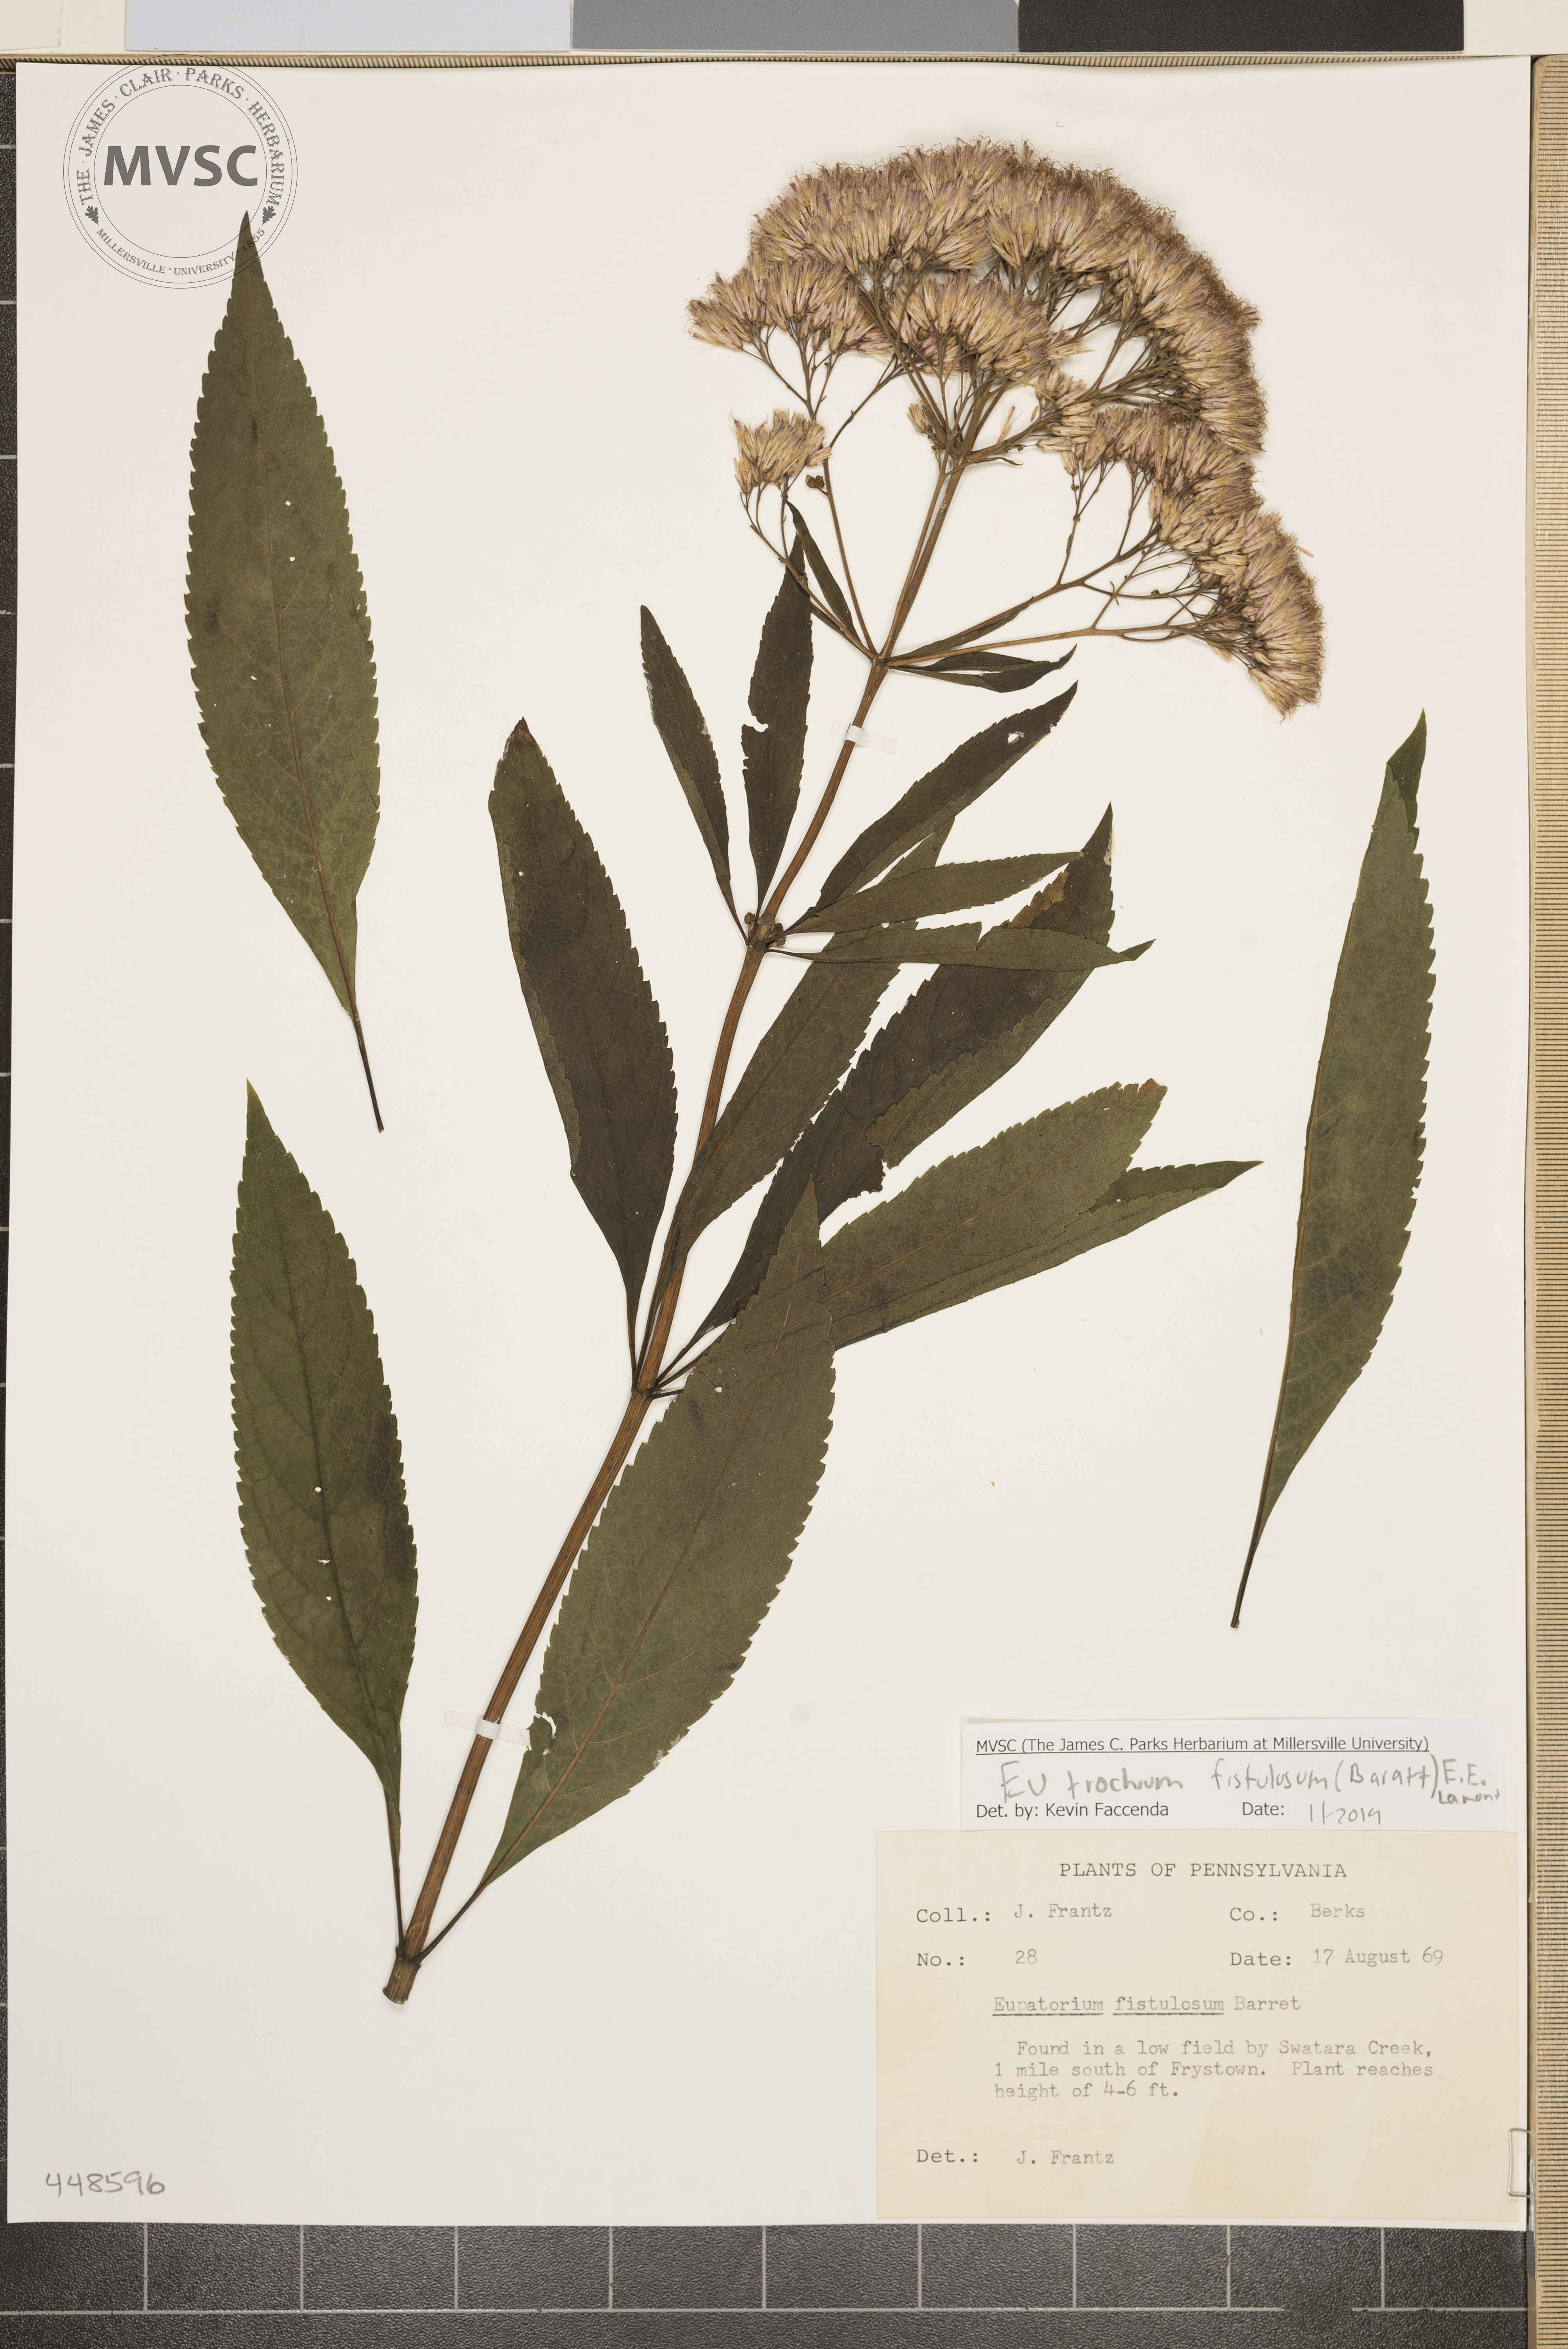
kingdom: Plantae
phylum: Tracheophyta
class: Magnoliopsida
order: Asterales
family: Asteraceae
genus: Eutrochium
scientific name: Eutrochium fistulosum
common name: Trumpetweed
